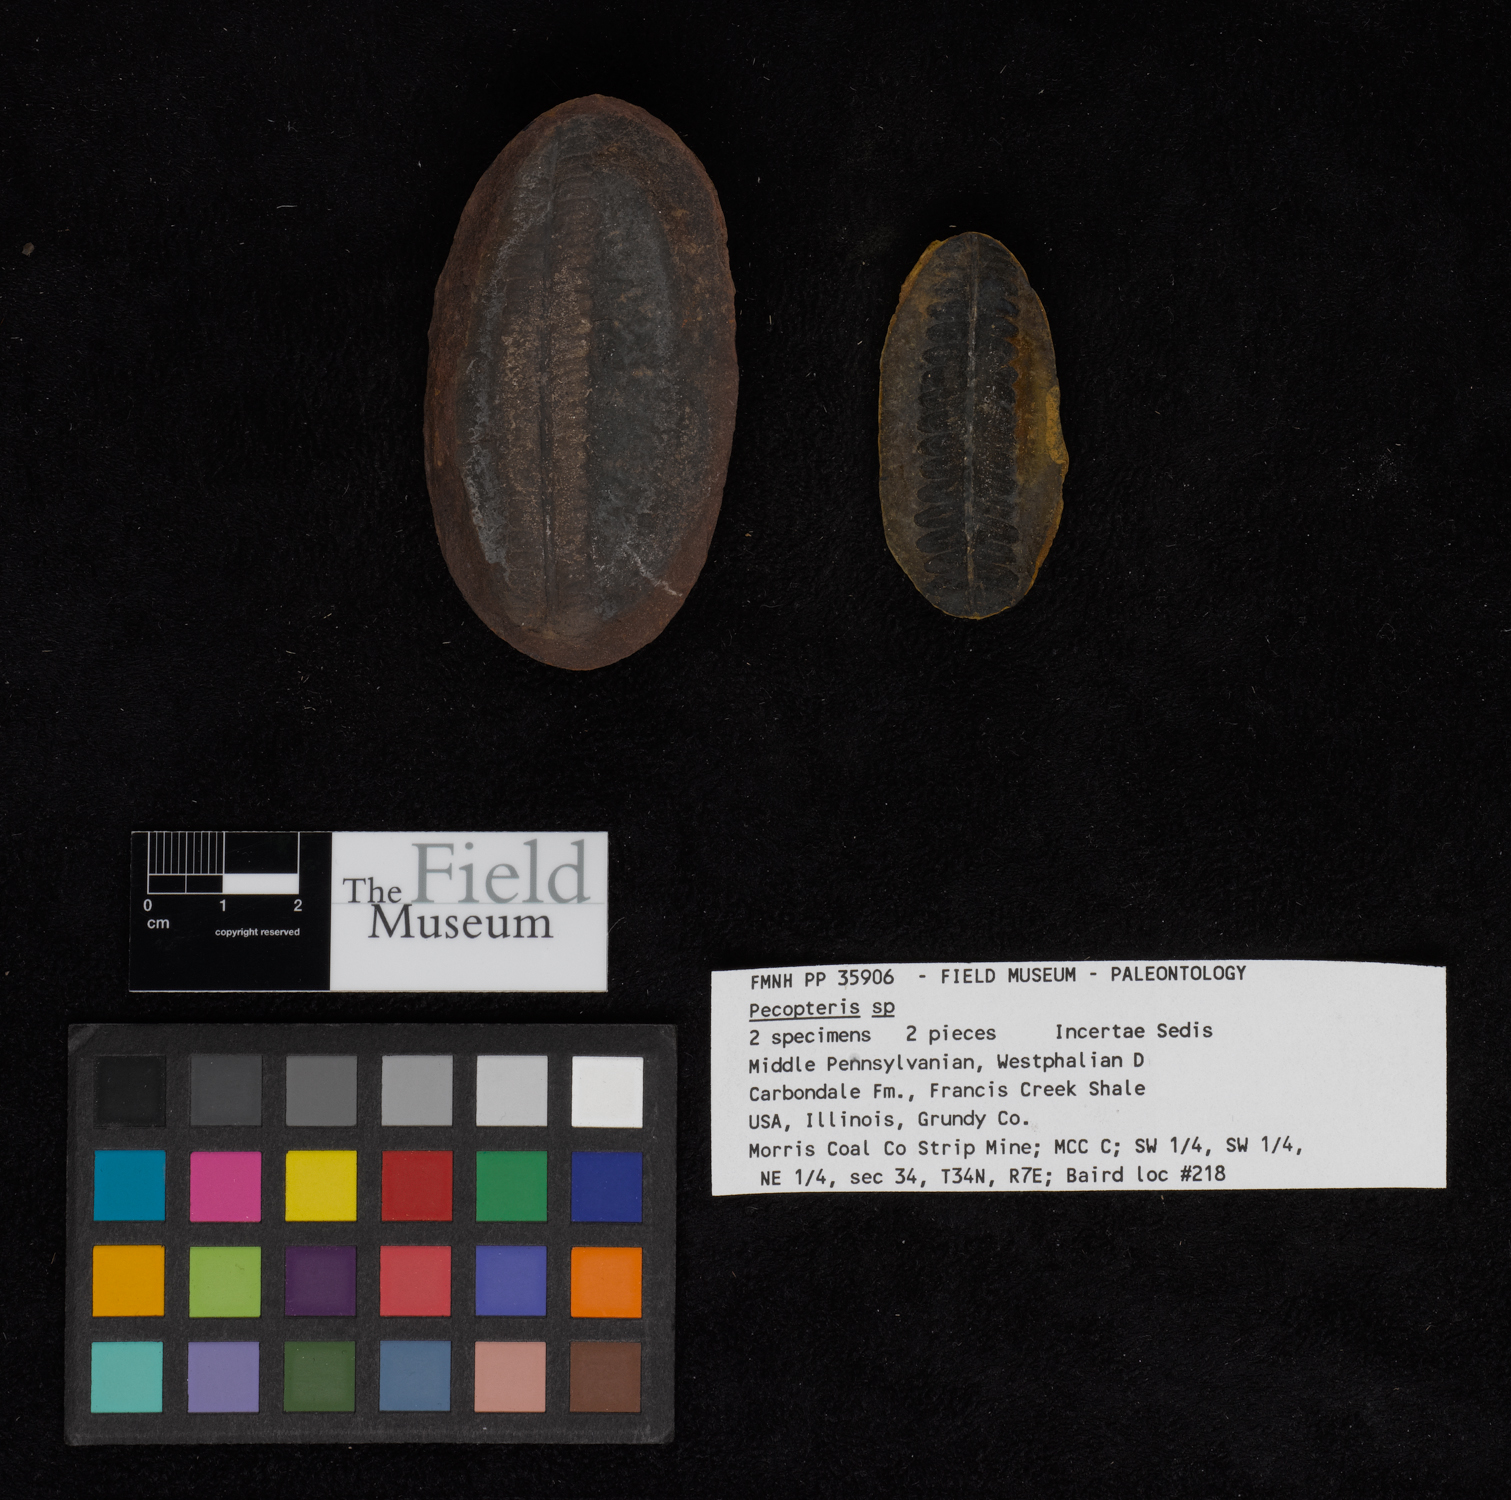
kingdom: Plantae
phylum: Tracheophyta
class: Polypodiopsida
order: Marattiales
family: Asterothecaceae
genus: Pecopteris
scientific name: Pecopteris
